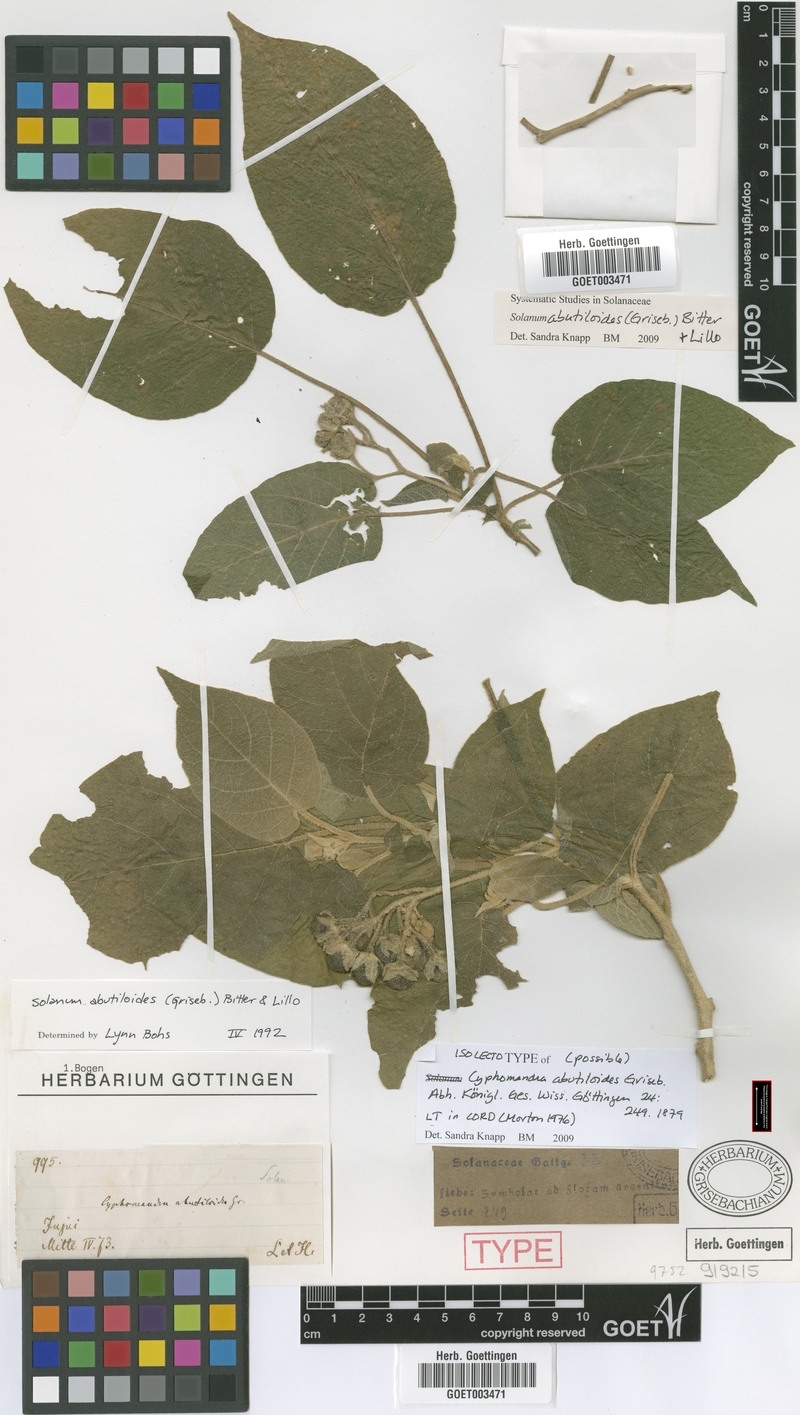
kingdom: Plantae
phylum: Tracheophyta
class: Magnoliopsida
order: Solanales
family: Solanaceae
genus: Solanum
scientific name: Solanum abutiloides
